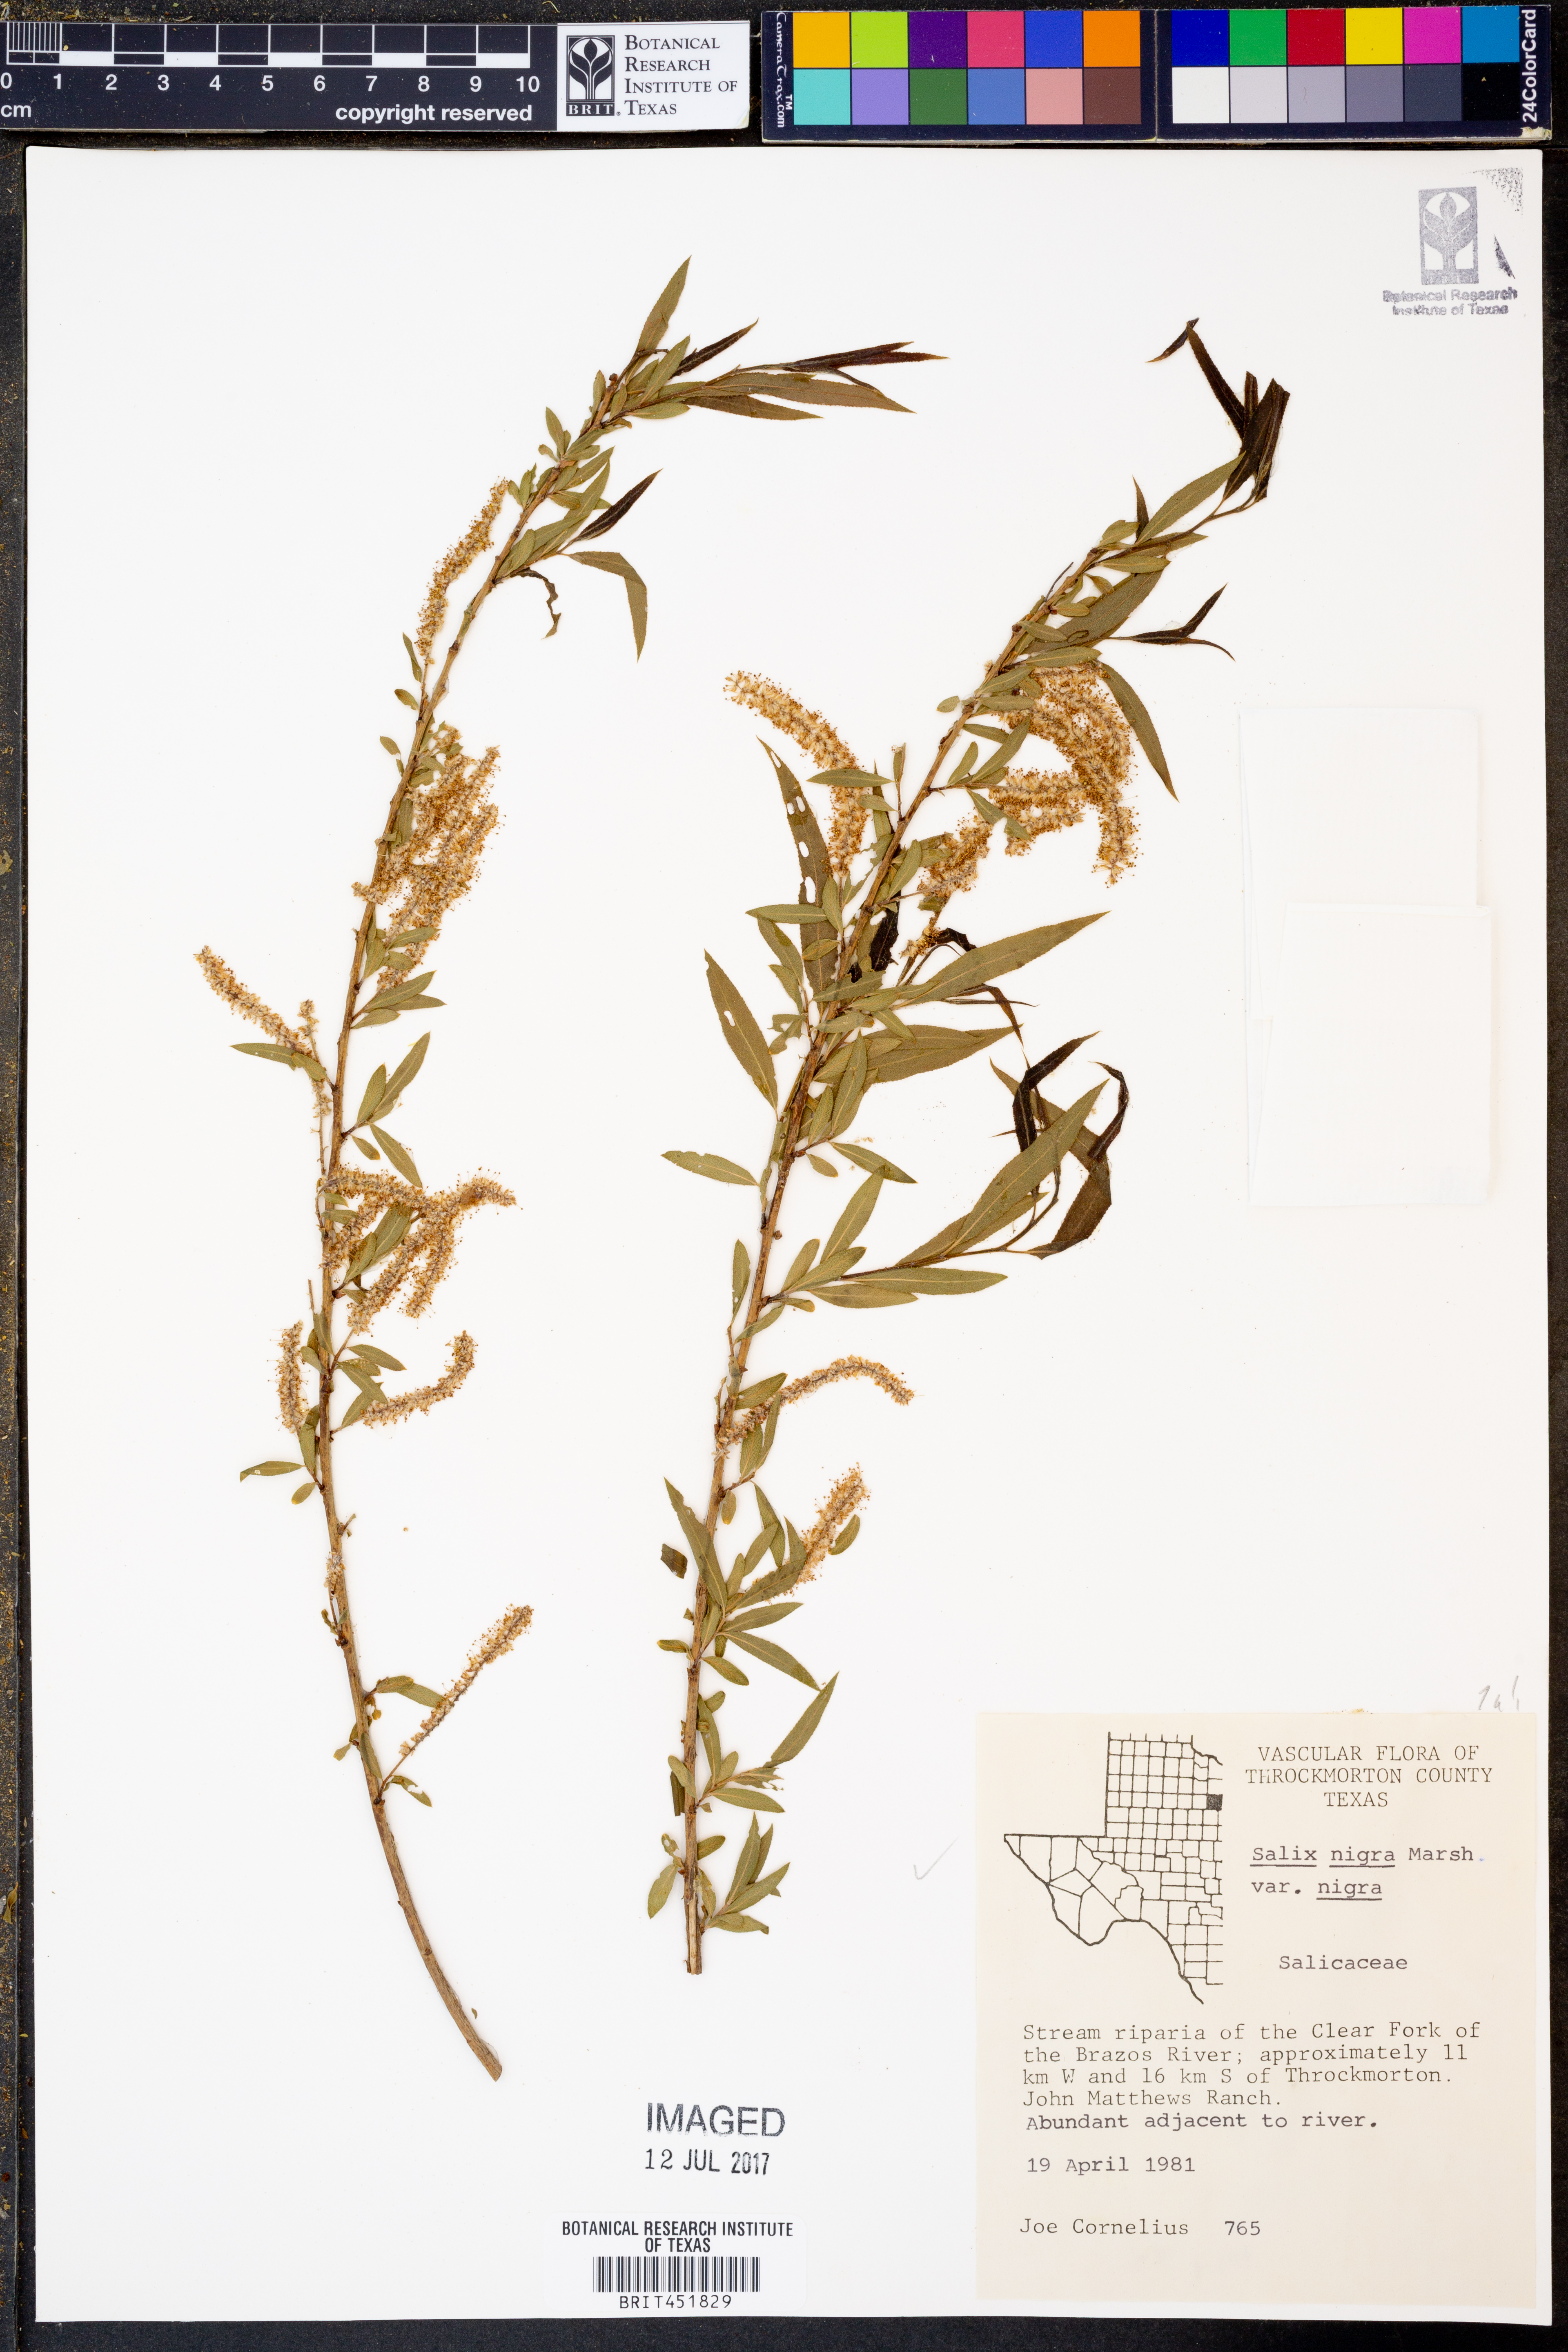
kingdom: Plantae
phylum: Tracheophyta
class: Magnoliopsida
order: Malpighiales
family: Salicaceae
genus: Salix
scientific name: Salix nigra
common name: Black willow
